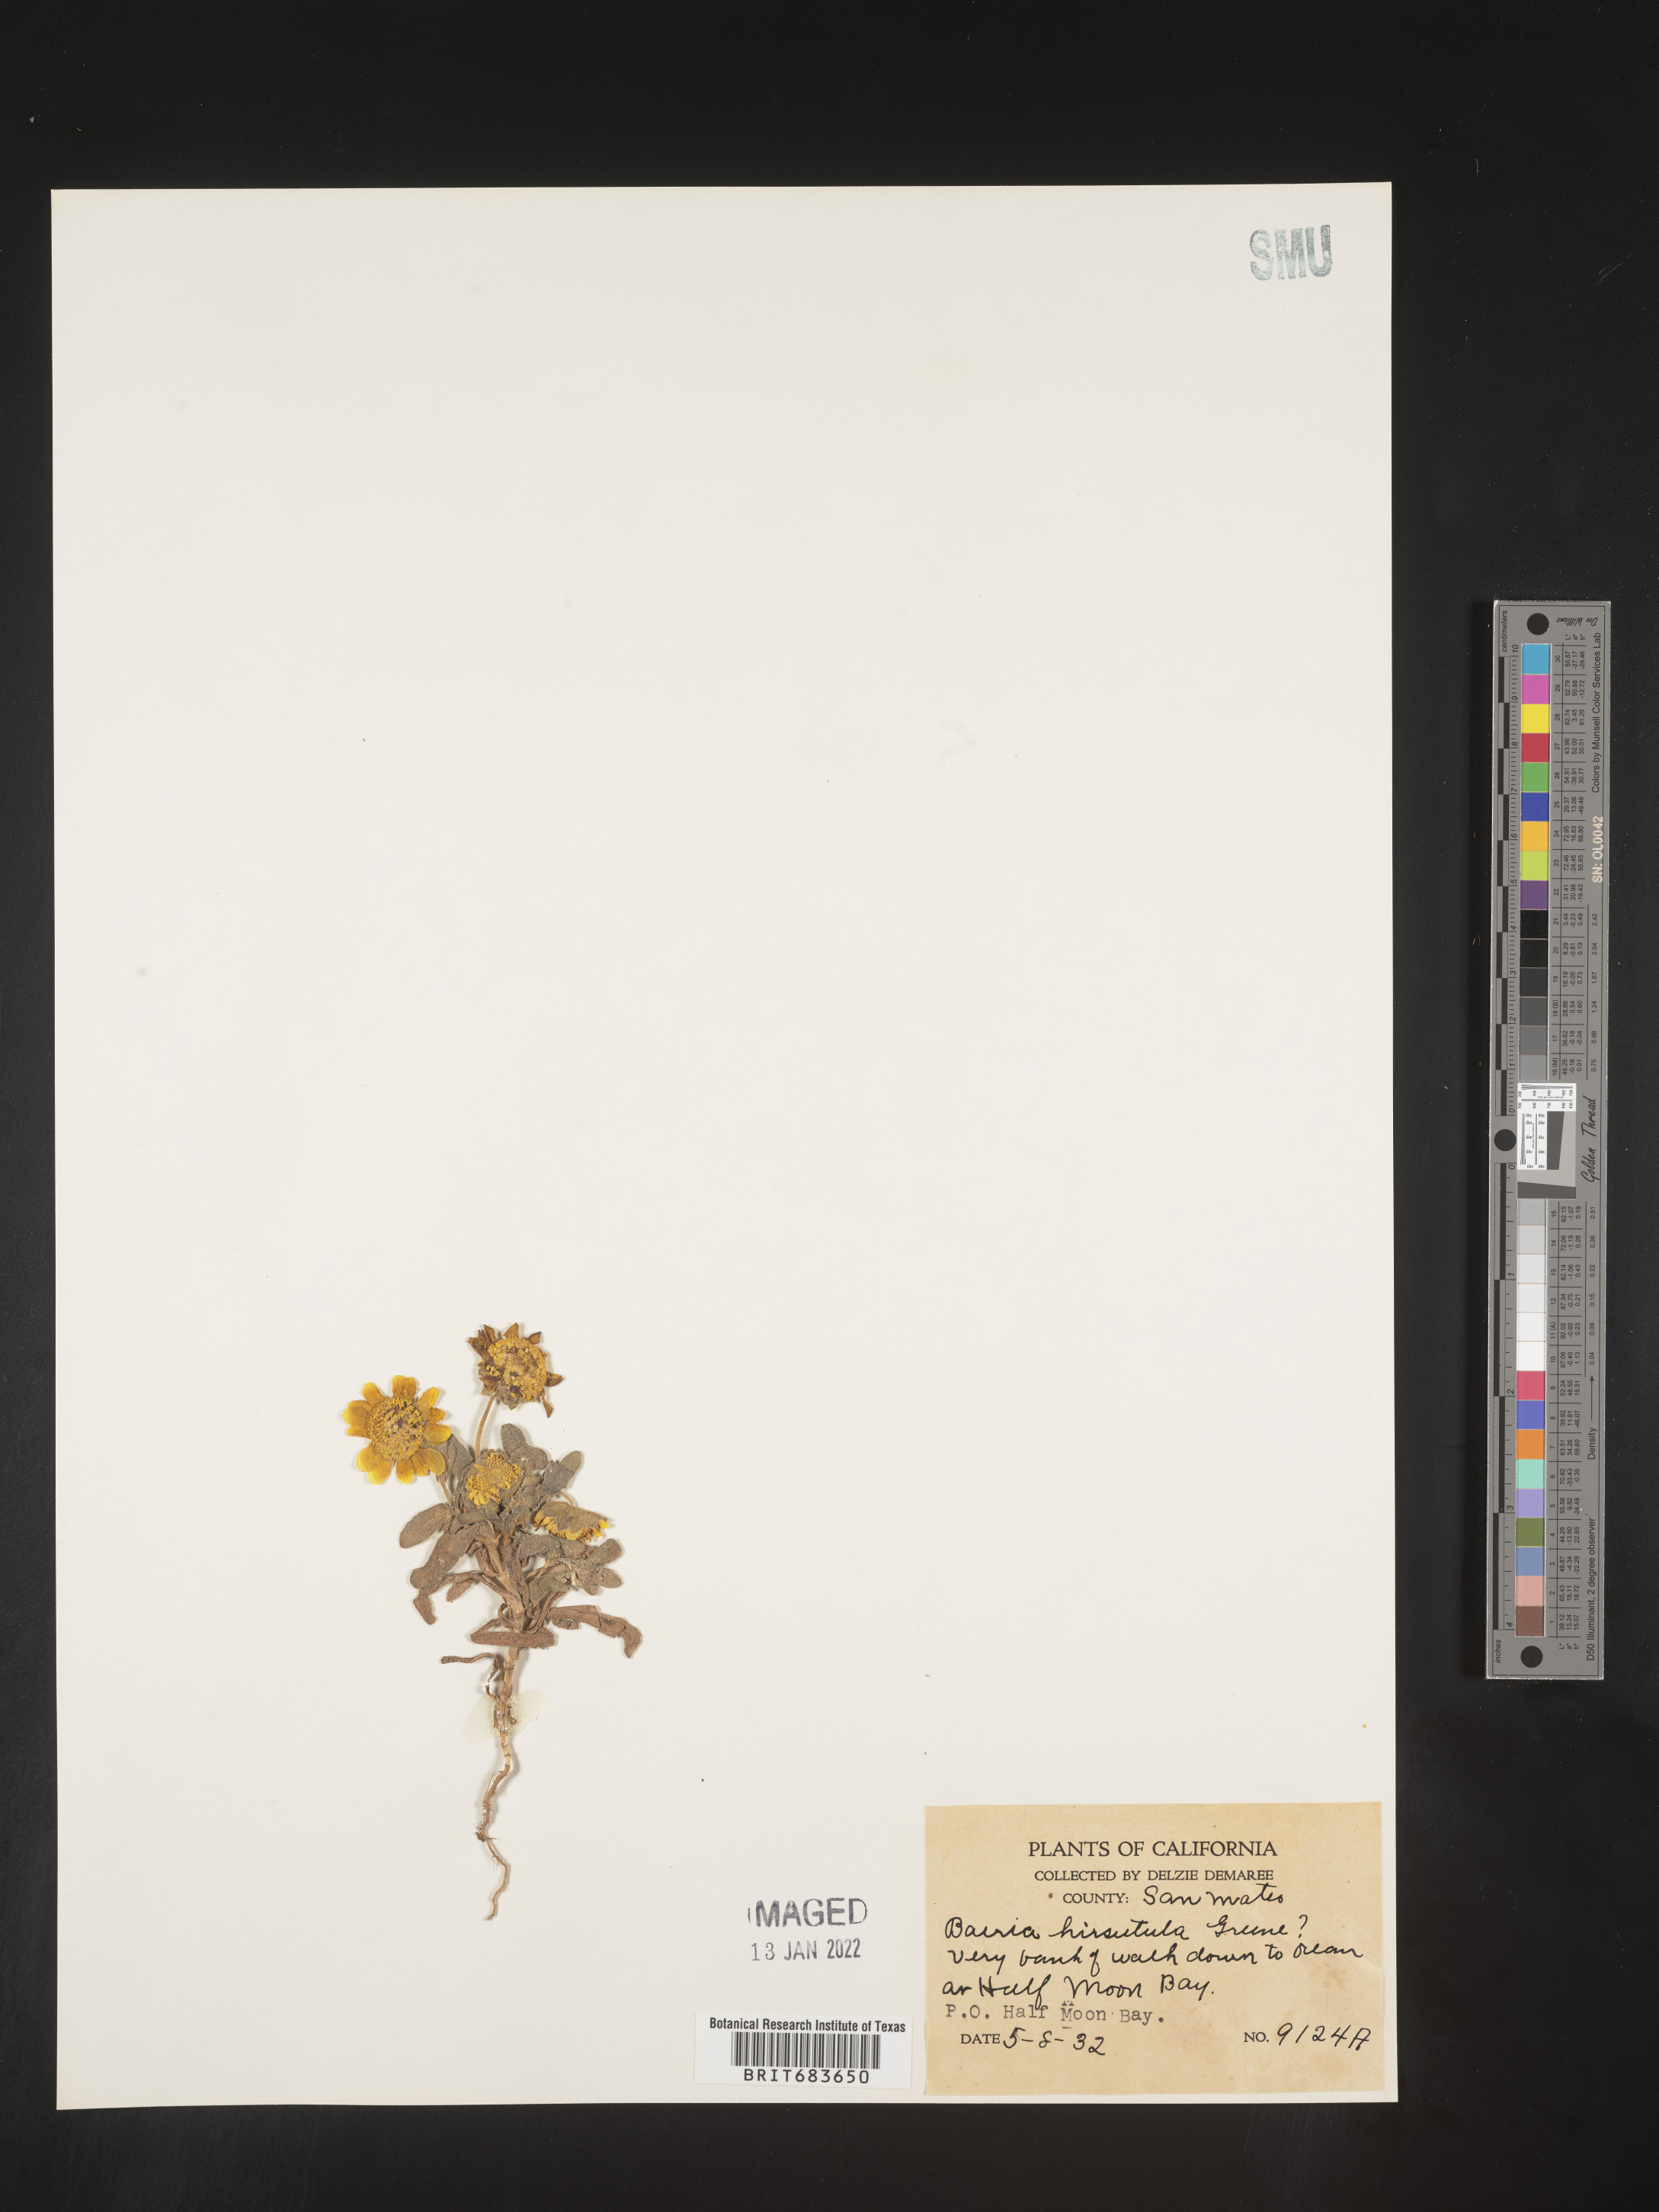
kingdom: Plantae
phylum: Tracheophyta
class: Magnoliopsida
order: Asterales
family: Asteraceae
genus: Lasthenia
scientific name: Lasthenia
